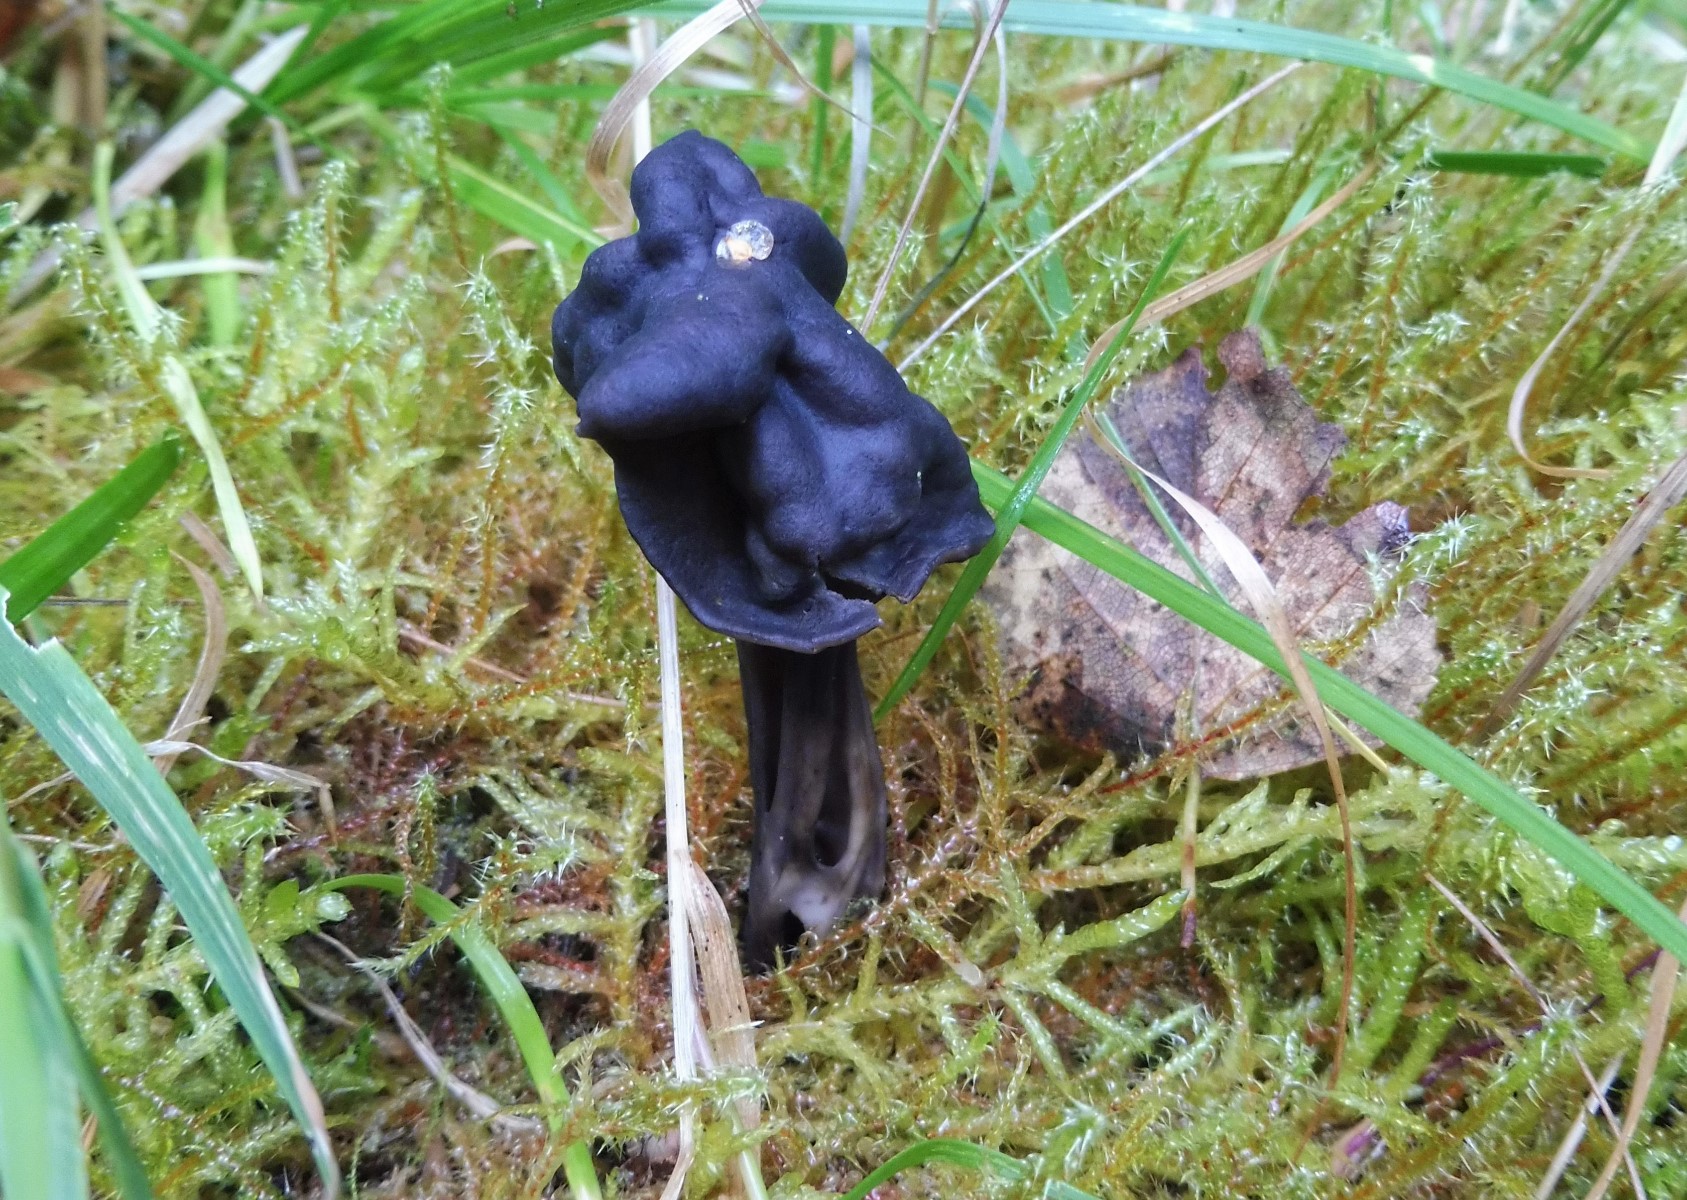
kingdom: Fungi
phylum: Ascomycota
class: Pezizomycetes
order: Pezizales
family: Helvellaceae
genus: Helvella
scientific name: Helvella lacunosa
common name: grubet foldhat
